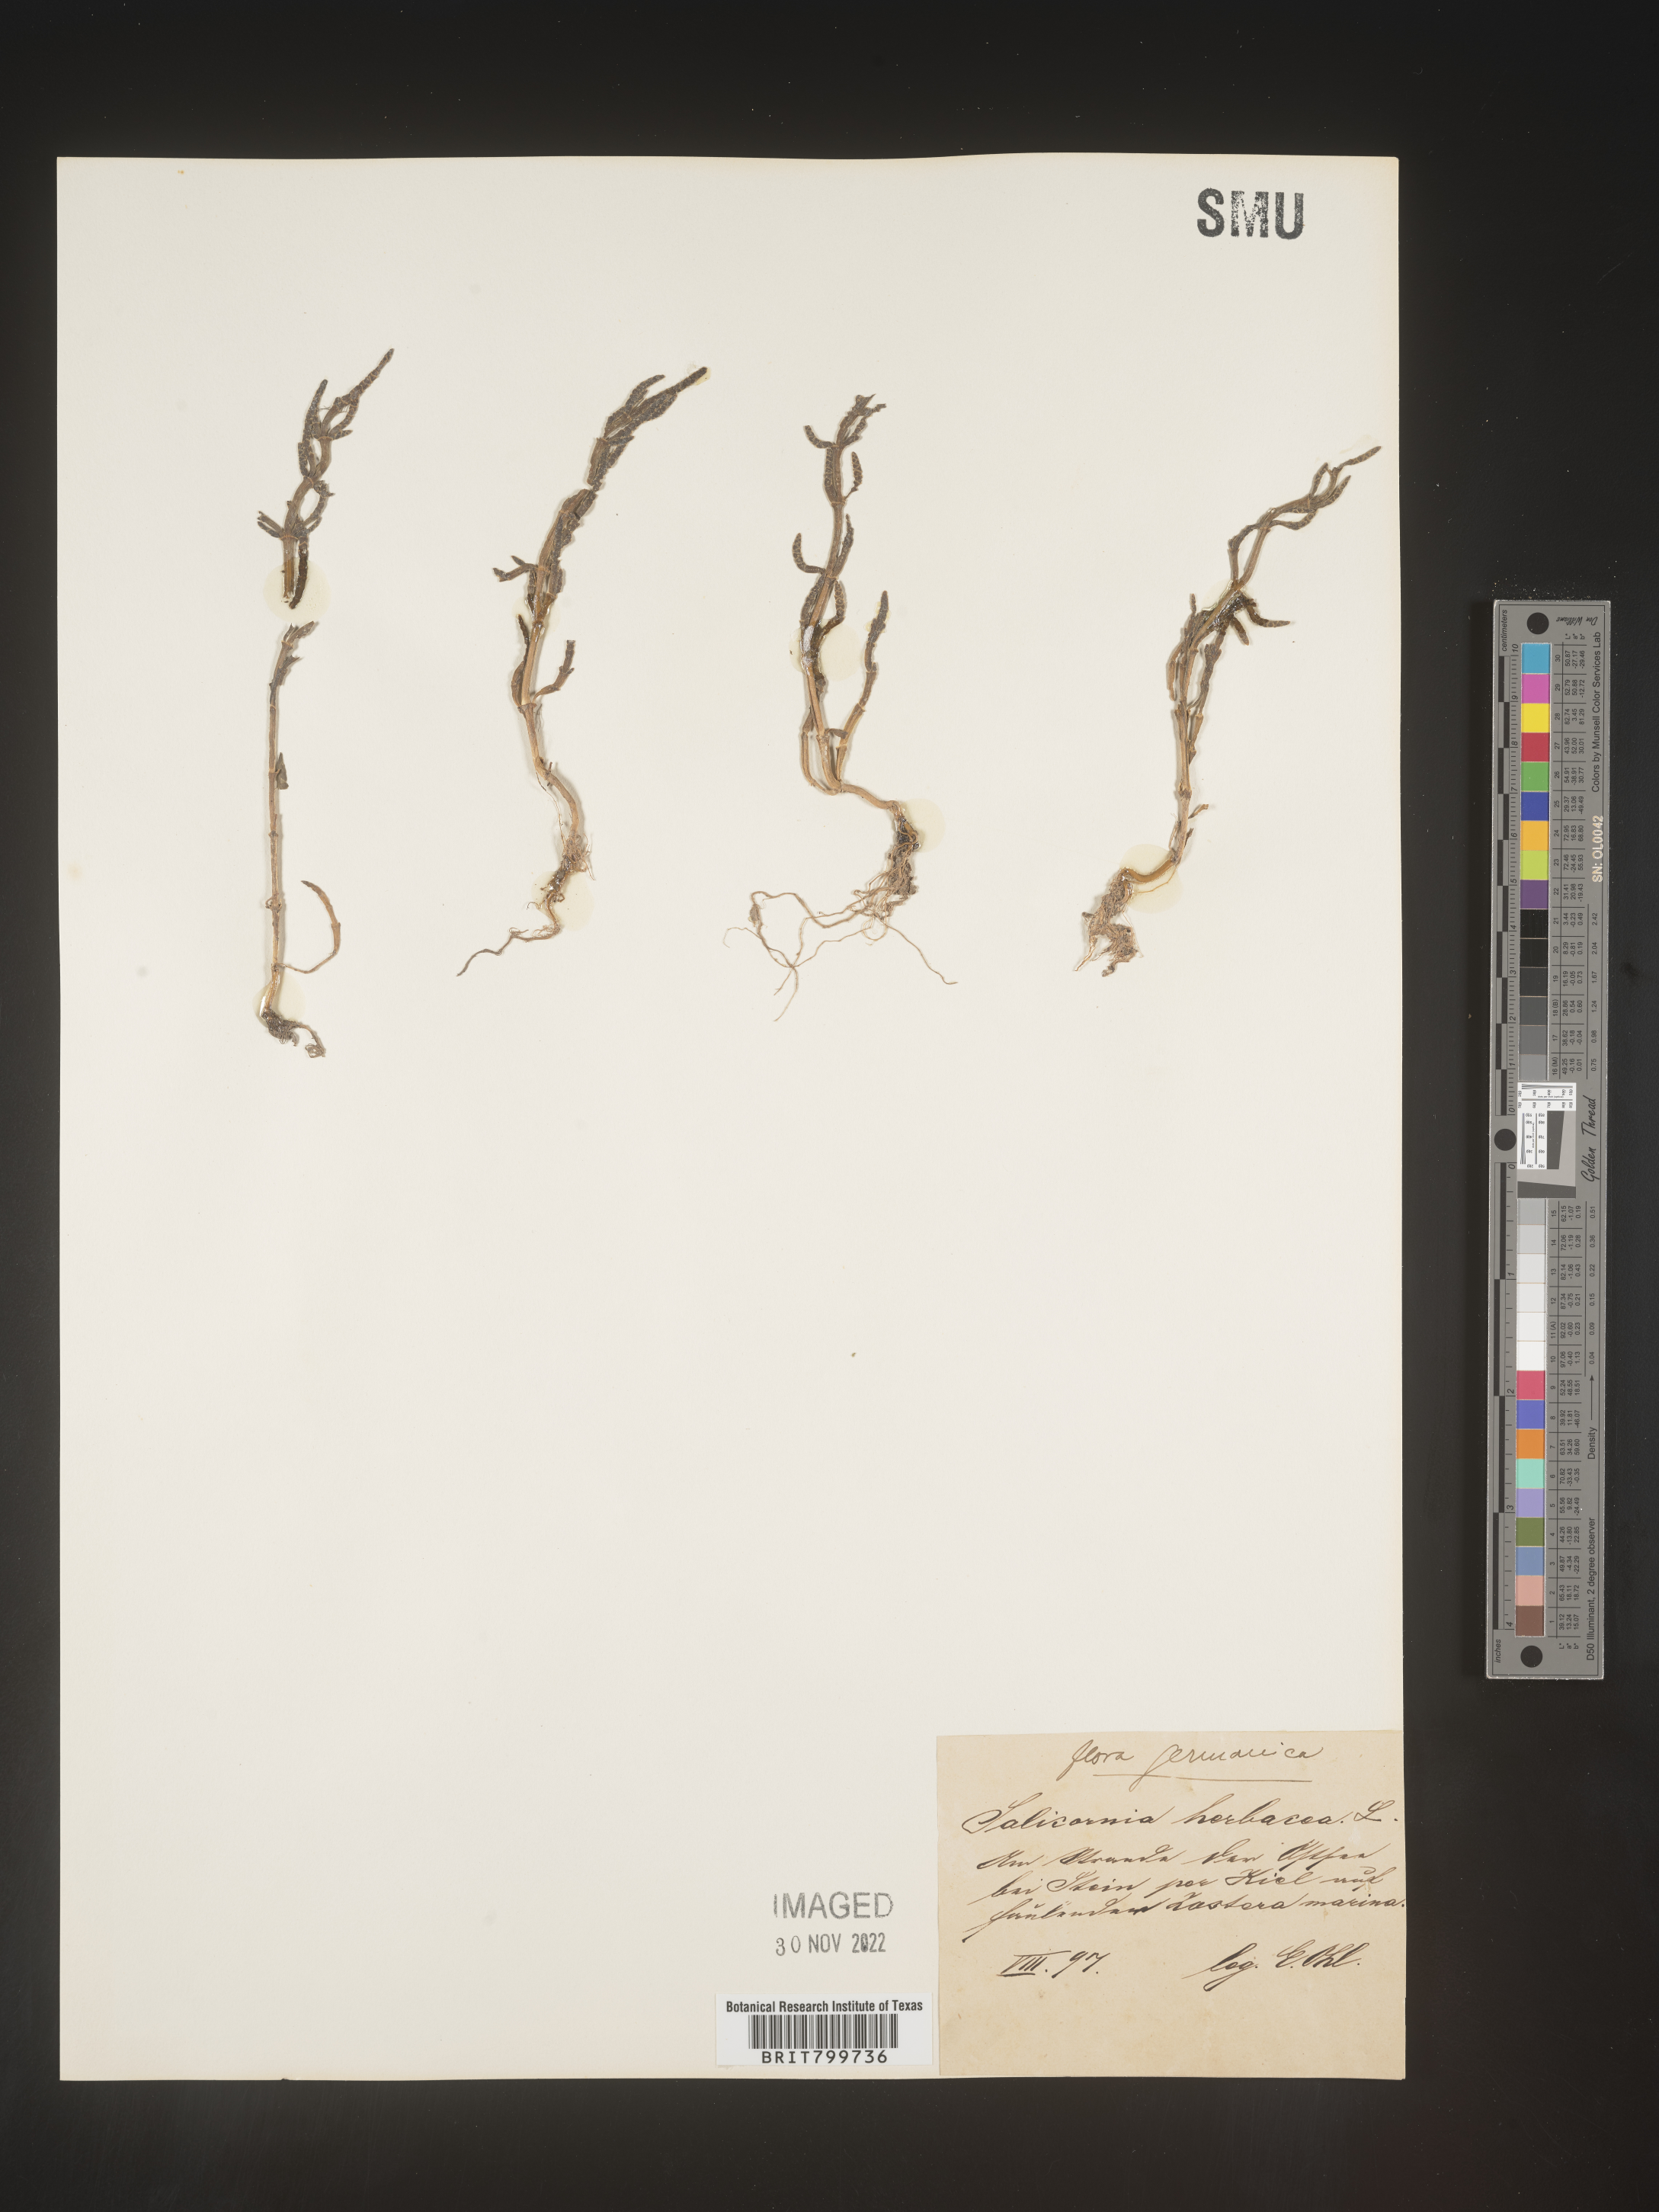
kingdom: Plantae
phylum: Tracheophyta
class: Magnoliopsida
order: Caryophyllales
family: Amaranthaceae
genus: Salicornia
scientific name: Salicornia
